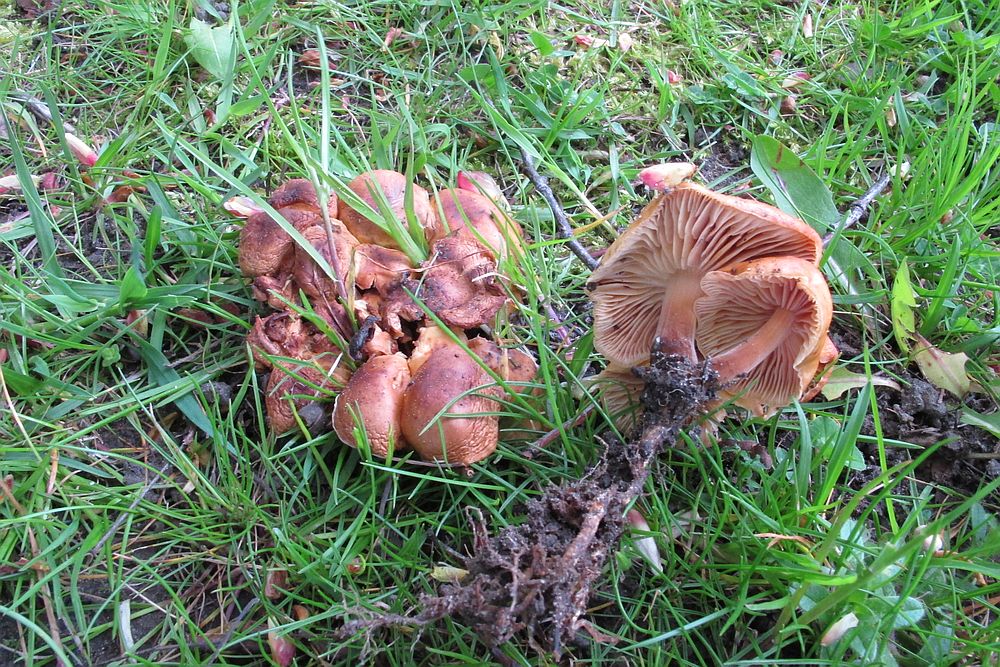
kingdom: Fungi
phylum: Basidiomycota
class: Agaricomycetes
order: Agaricales
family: Physalacriaceae
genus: Flammulina
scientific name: Flammulina velutipes
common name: gul fløjlsfod
